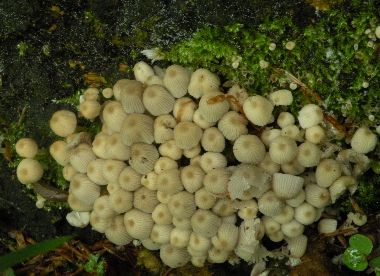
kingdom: Fungi
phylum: Basidiomycota
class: Agaricomycetes
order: Agaricales
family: Psathyrellaceae
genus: Coprinellus
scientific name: Coprinellus disseminatus
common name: bredsået blækhat
